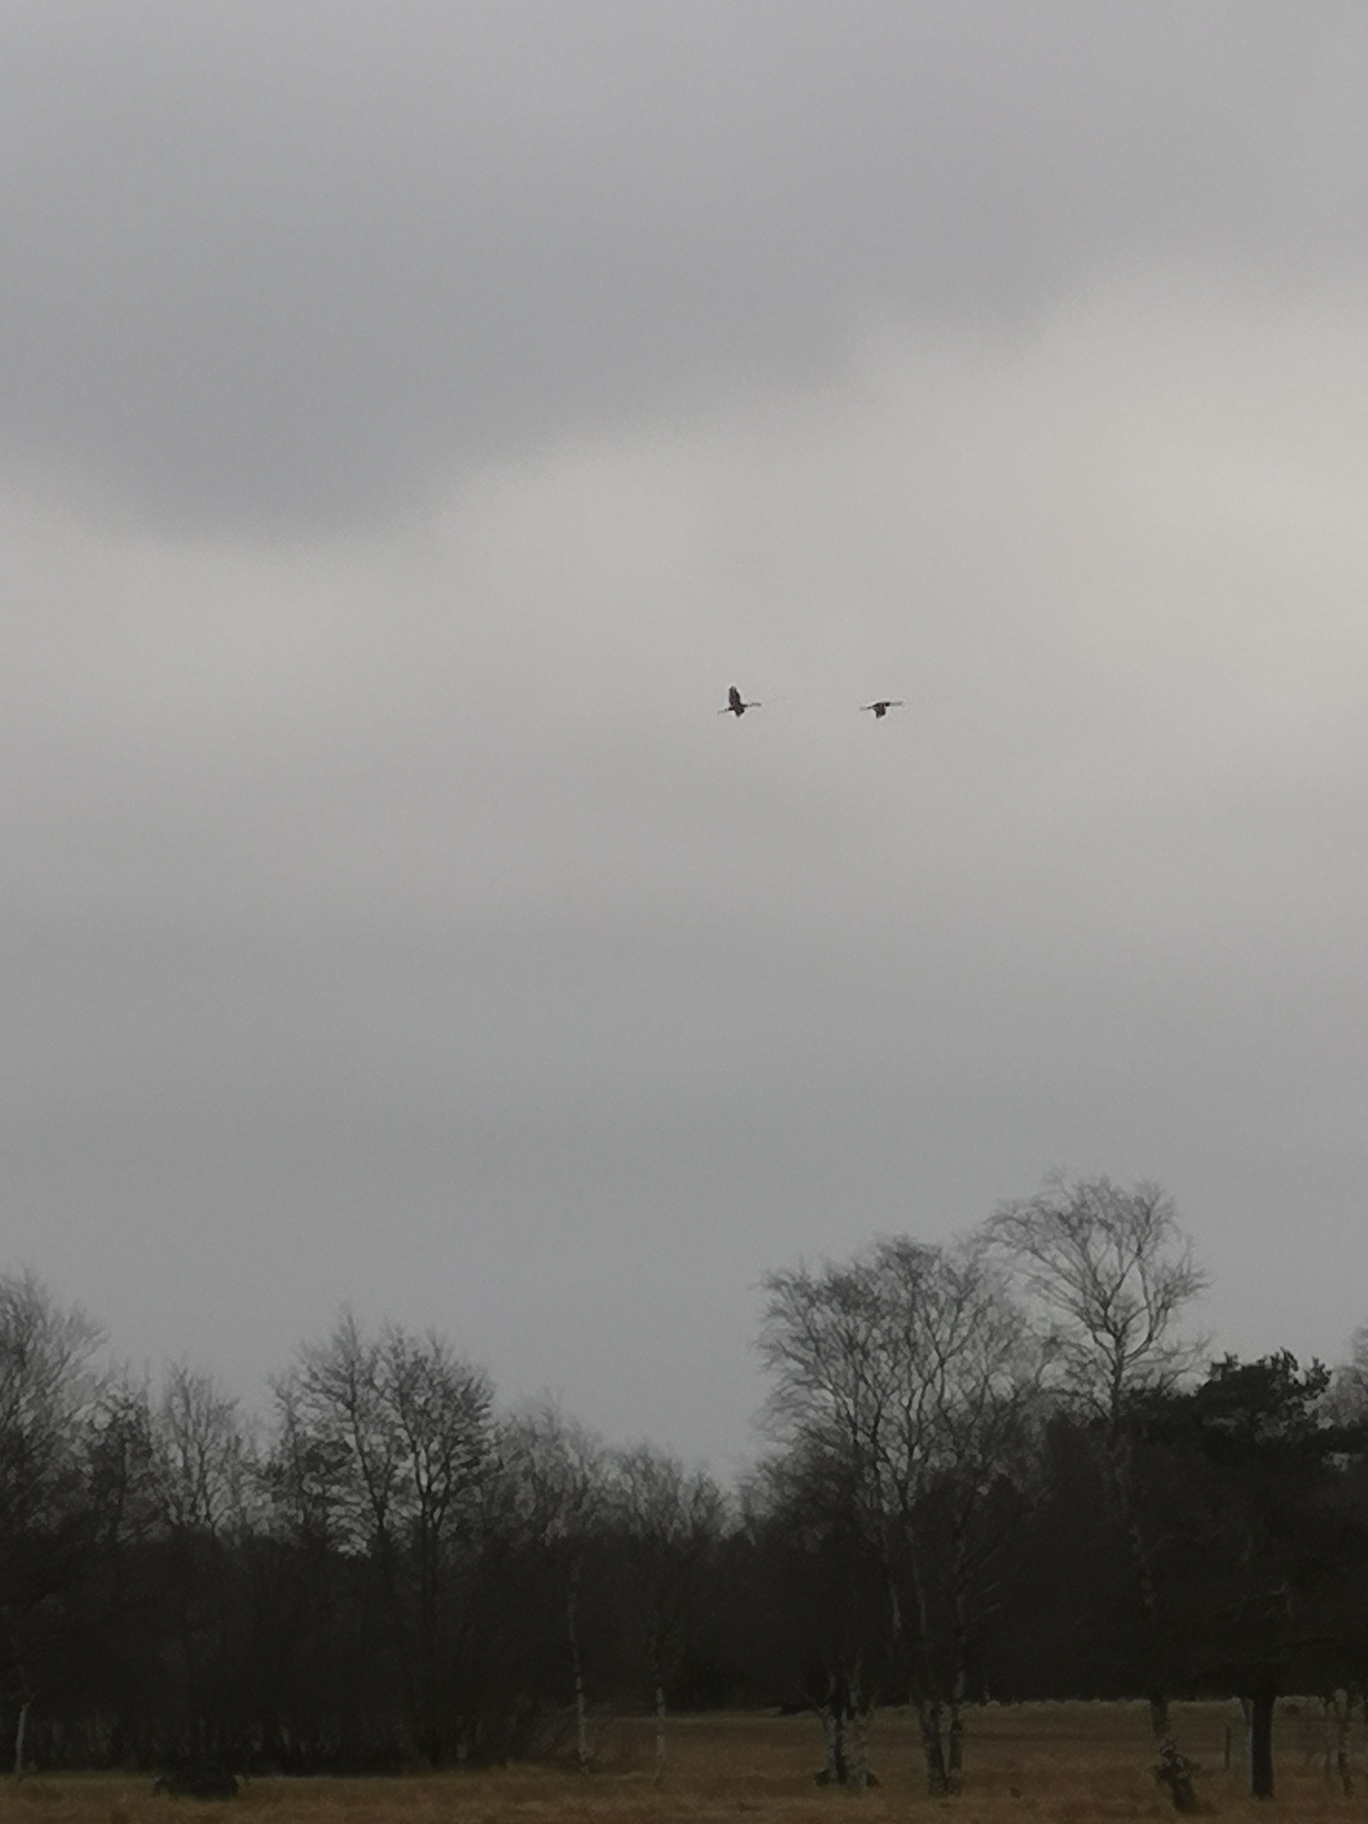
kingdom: Animalia
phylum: Chordata
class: Aves
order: Gruiformes
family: Gruidae
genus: Grus
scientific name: Grus grus
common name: Trane
